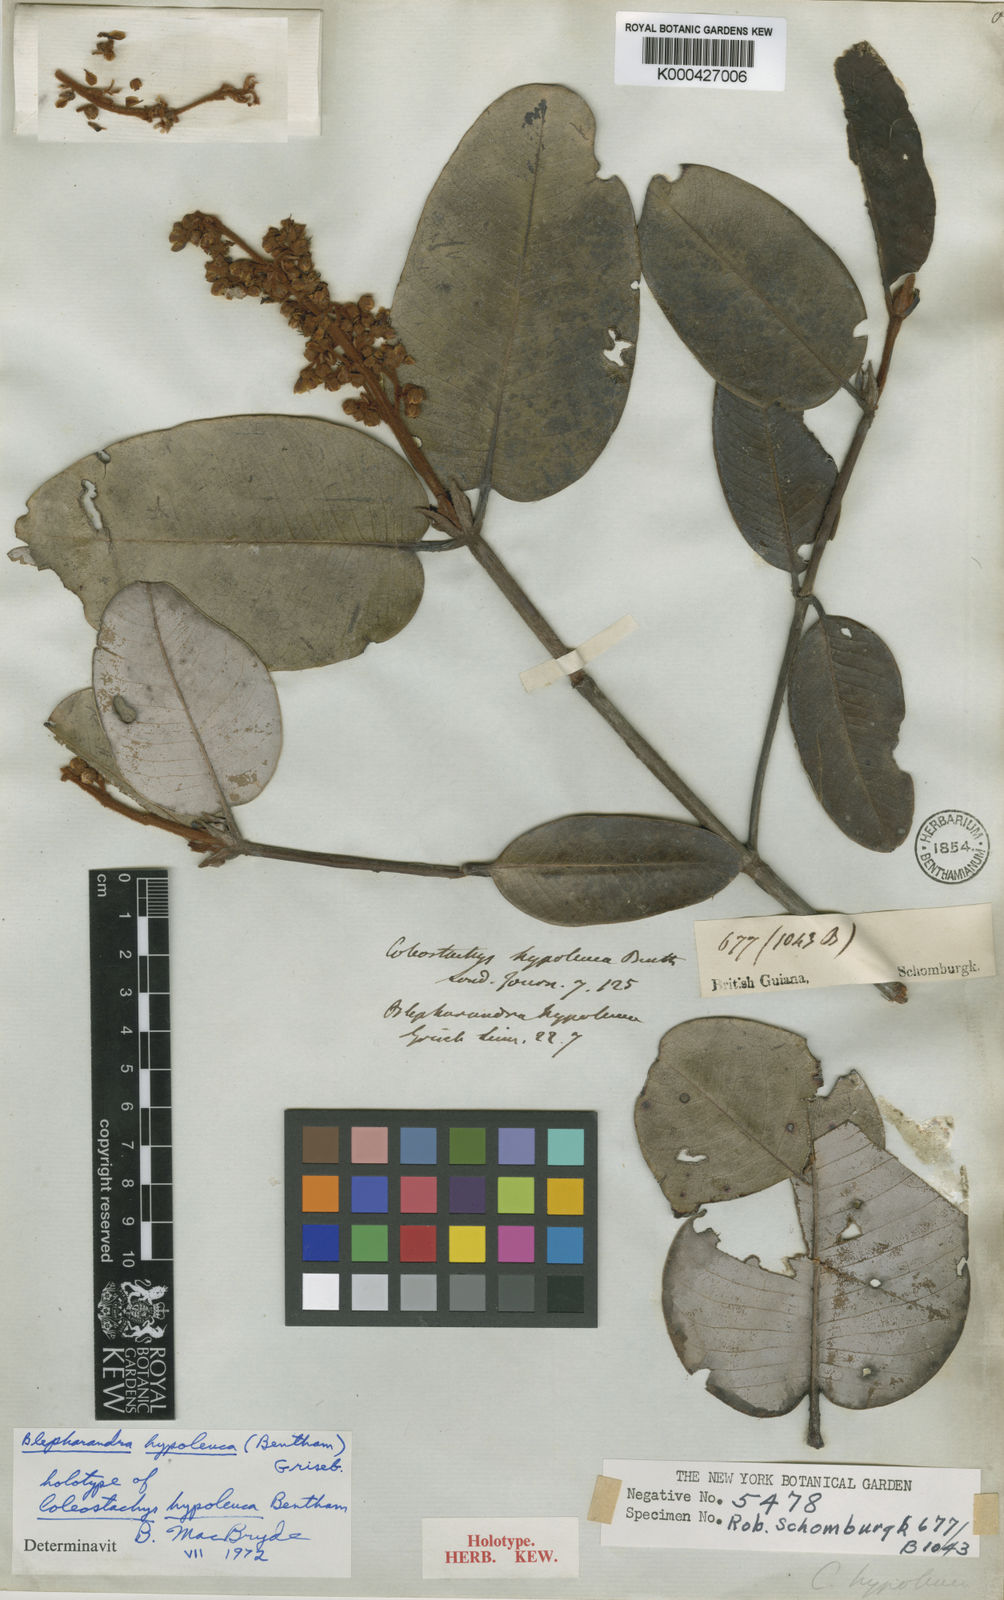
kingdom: Plantae
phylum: Tracheophyta
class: Magnoliopsida
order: Malpighiales
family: Malpighiaceae
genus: Blepharandra
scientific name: Blepharandra hypoleuca
